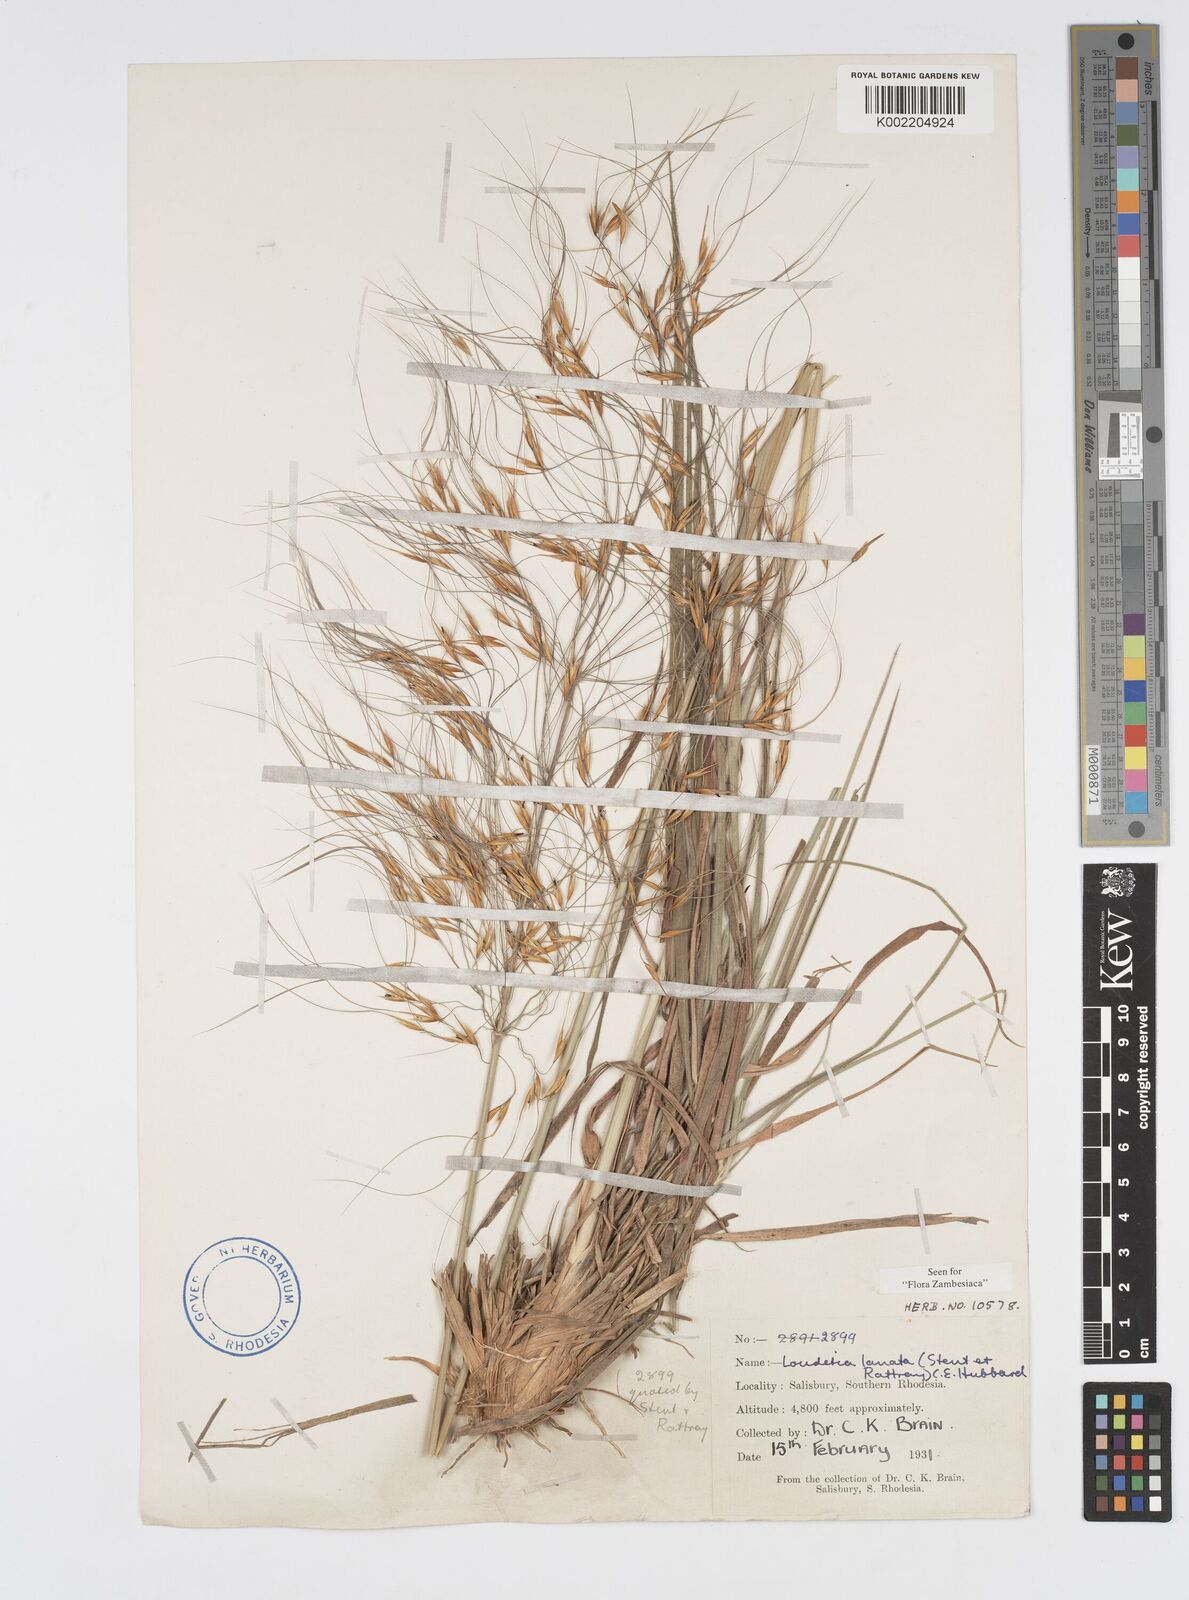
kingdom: Plantae
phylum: Tracheophyta
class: Liliopsida
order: Poales
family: Poaceae
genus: Loudetia
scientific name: Loudetia lanata
